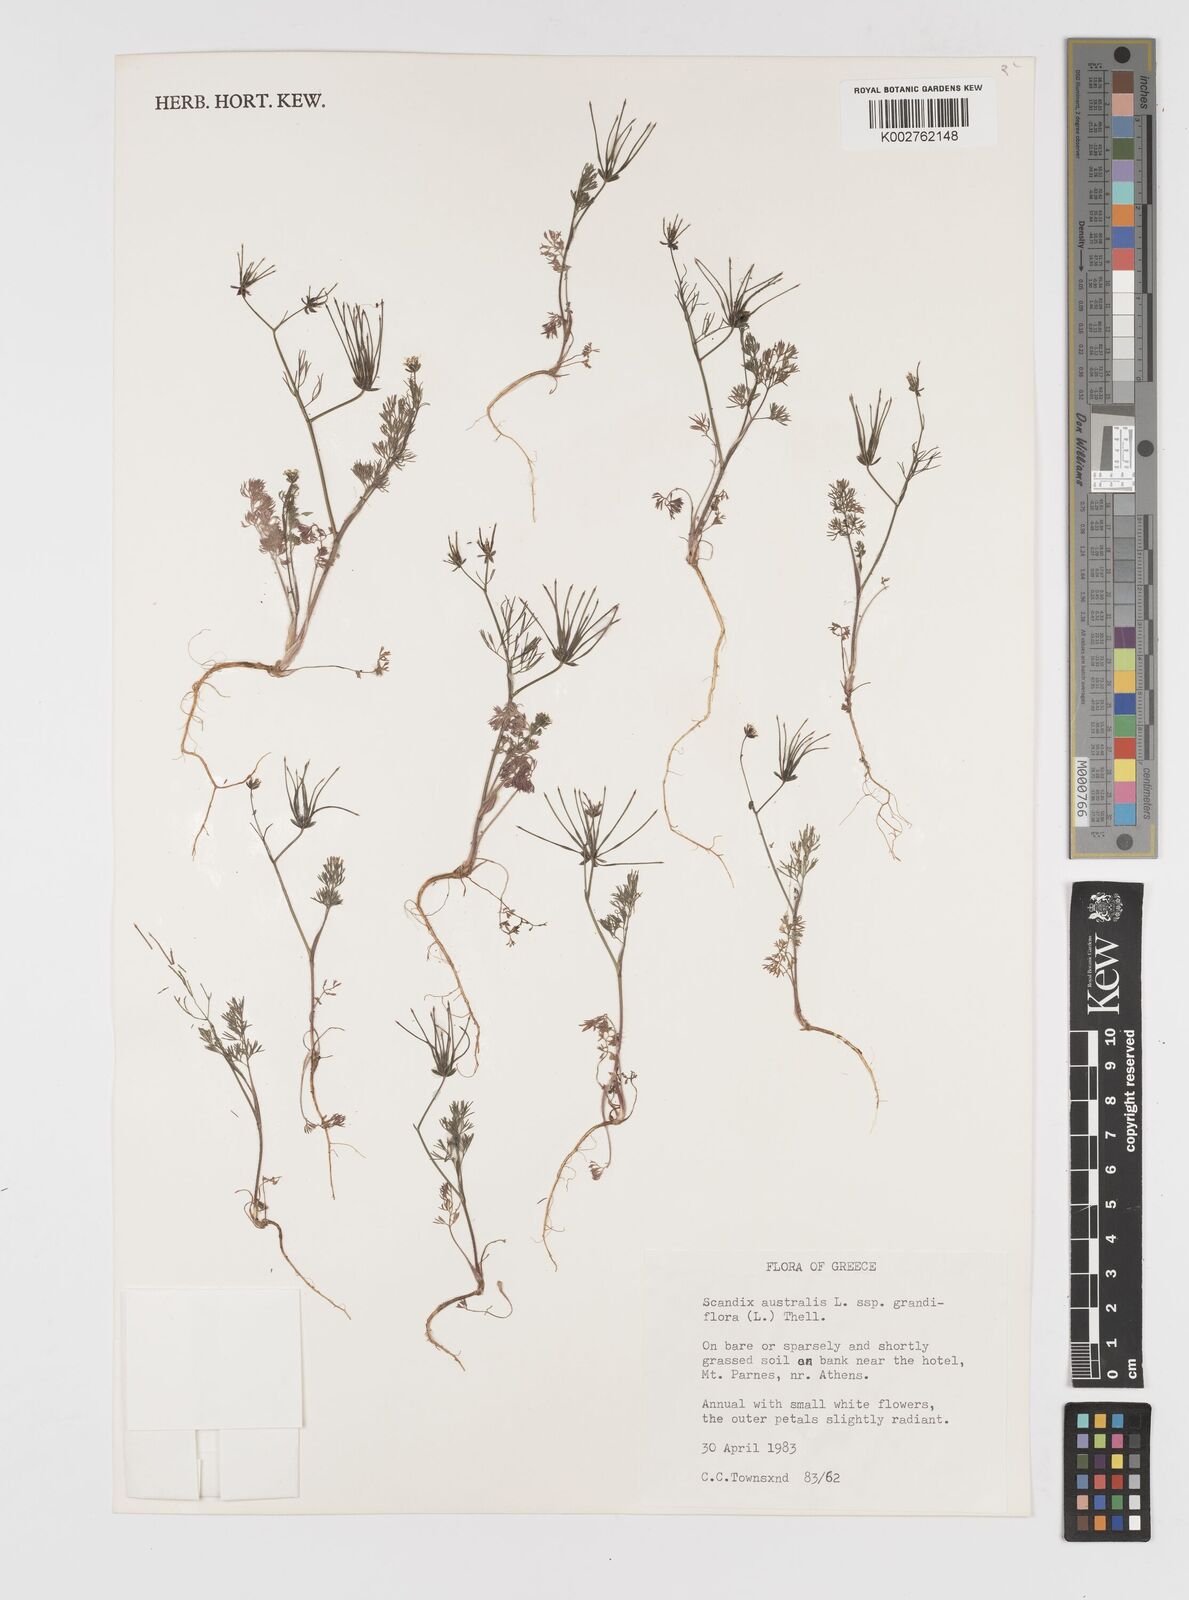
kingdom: Plantae
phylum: Tracheophyta
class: Magnoliopsida
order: Apiales
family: Apiaceae
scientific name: Apiaceae
